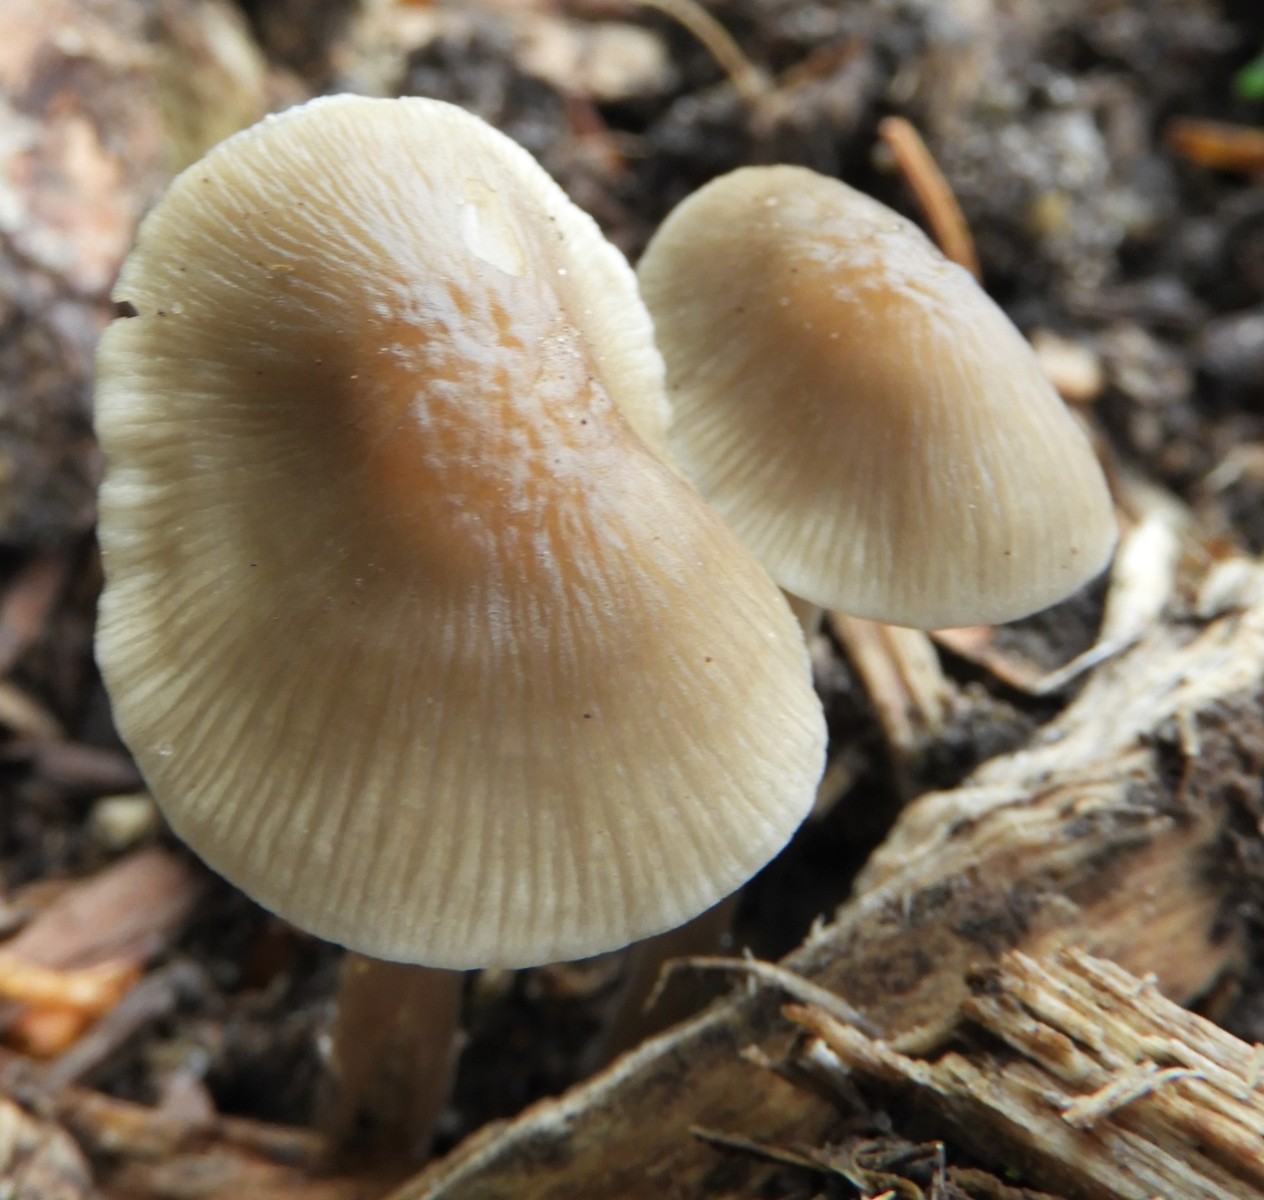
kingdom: Fungi
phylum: Basidiomycota
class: Agaricomycetes
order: Agaricales
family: Mycenaceae
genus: Mycena
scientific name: Mycena galericulata
